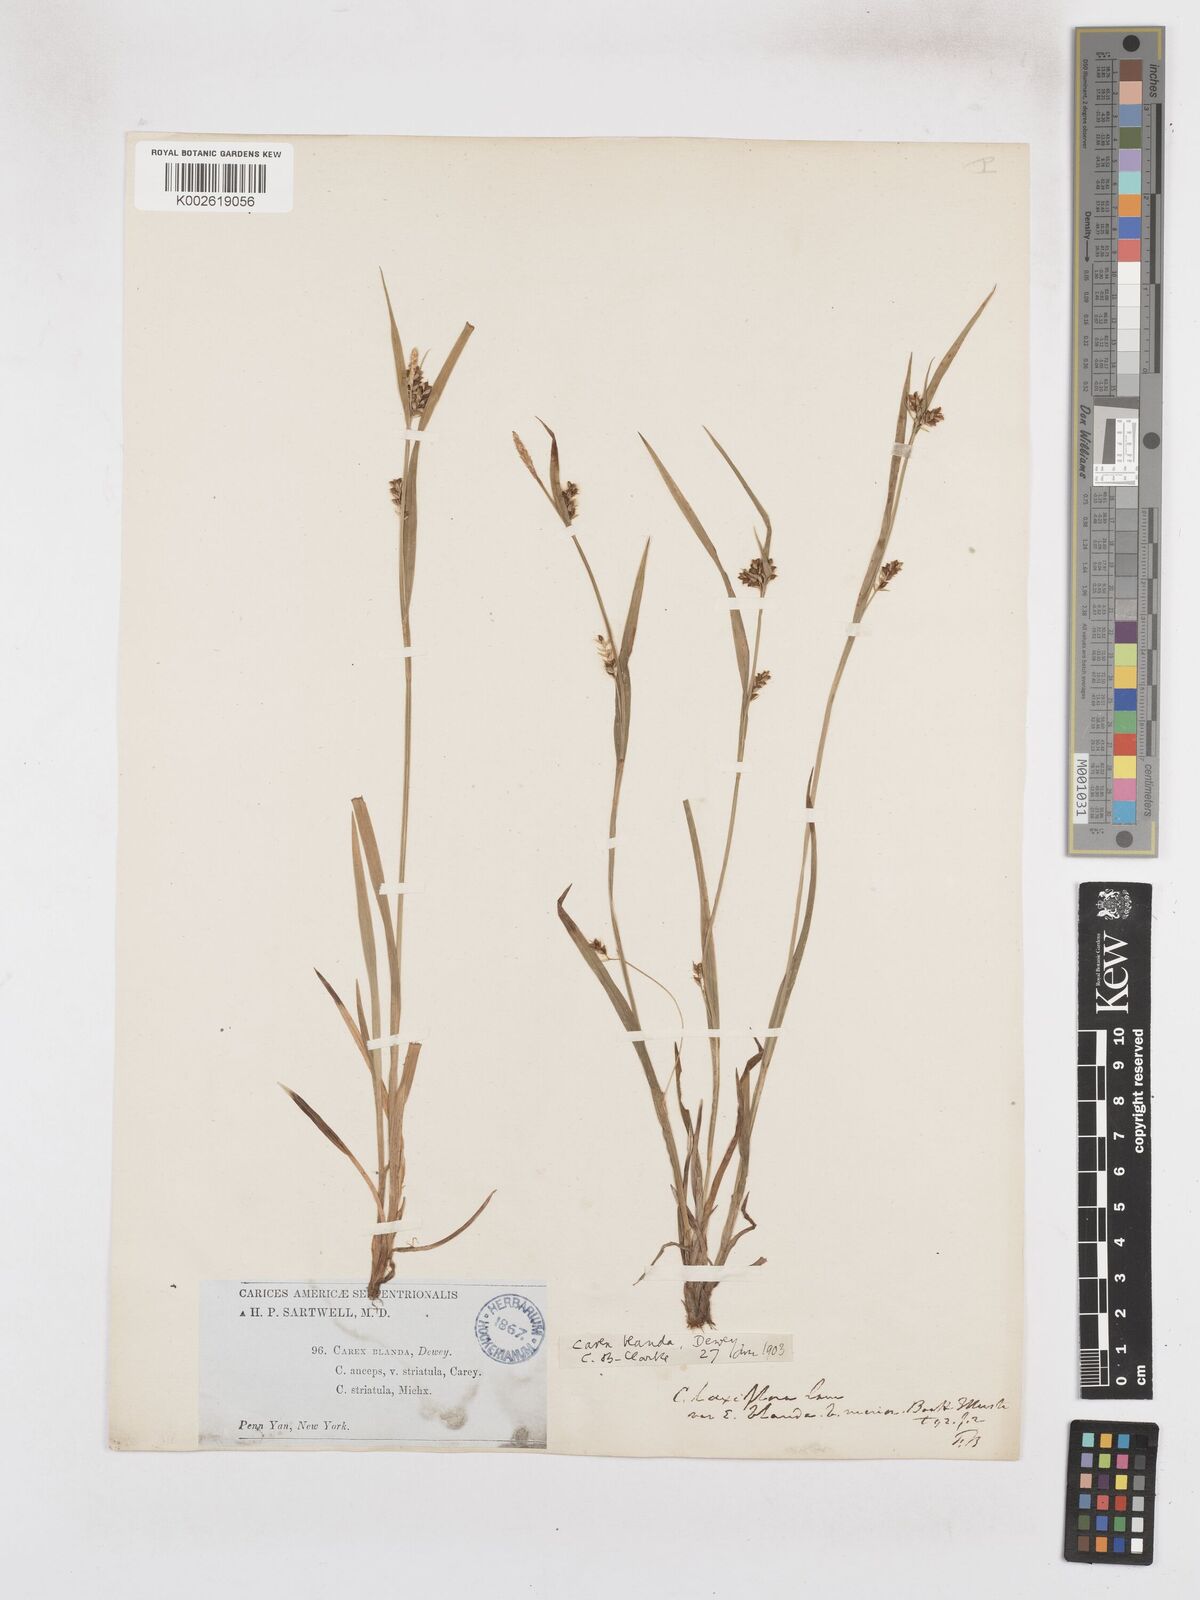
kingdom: Plantae
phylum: Tracheophyta
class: Liliopsida
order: Poales
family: Cyperaceae
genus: Carex
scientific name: Carex blanda
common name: Bland sedge
